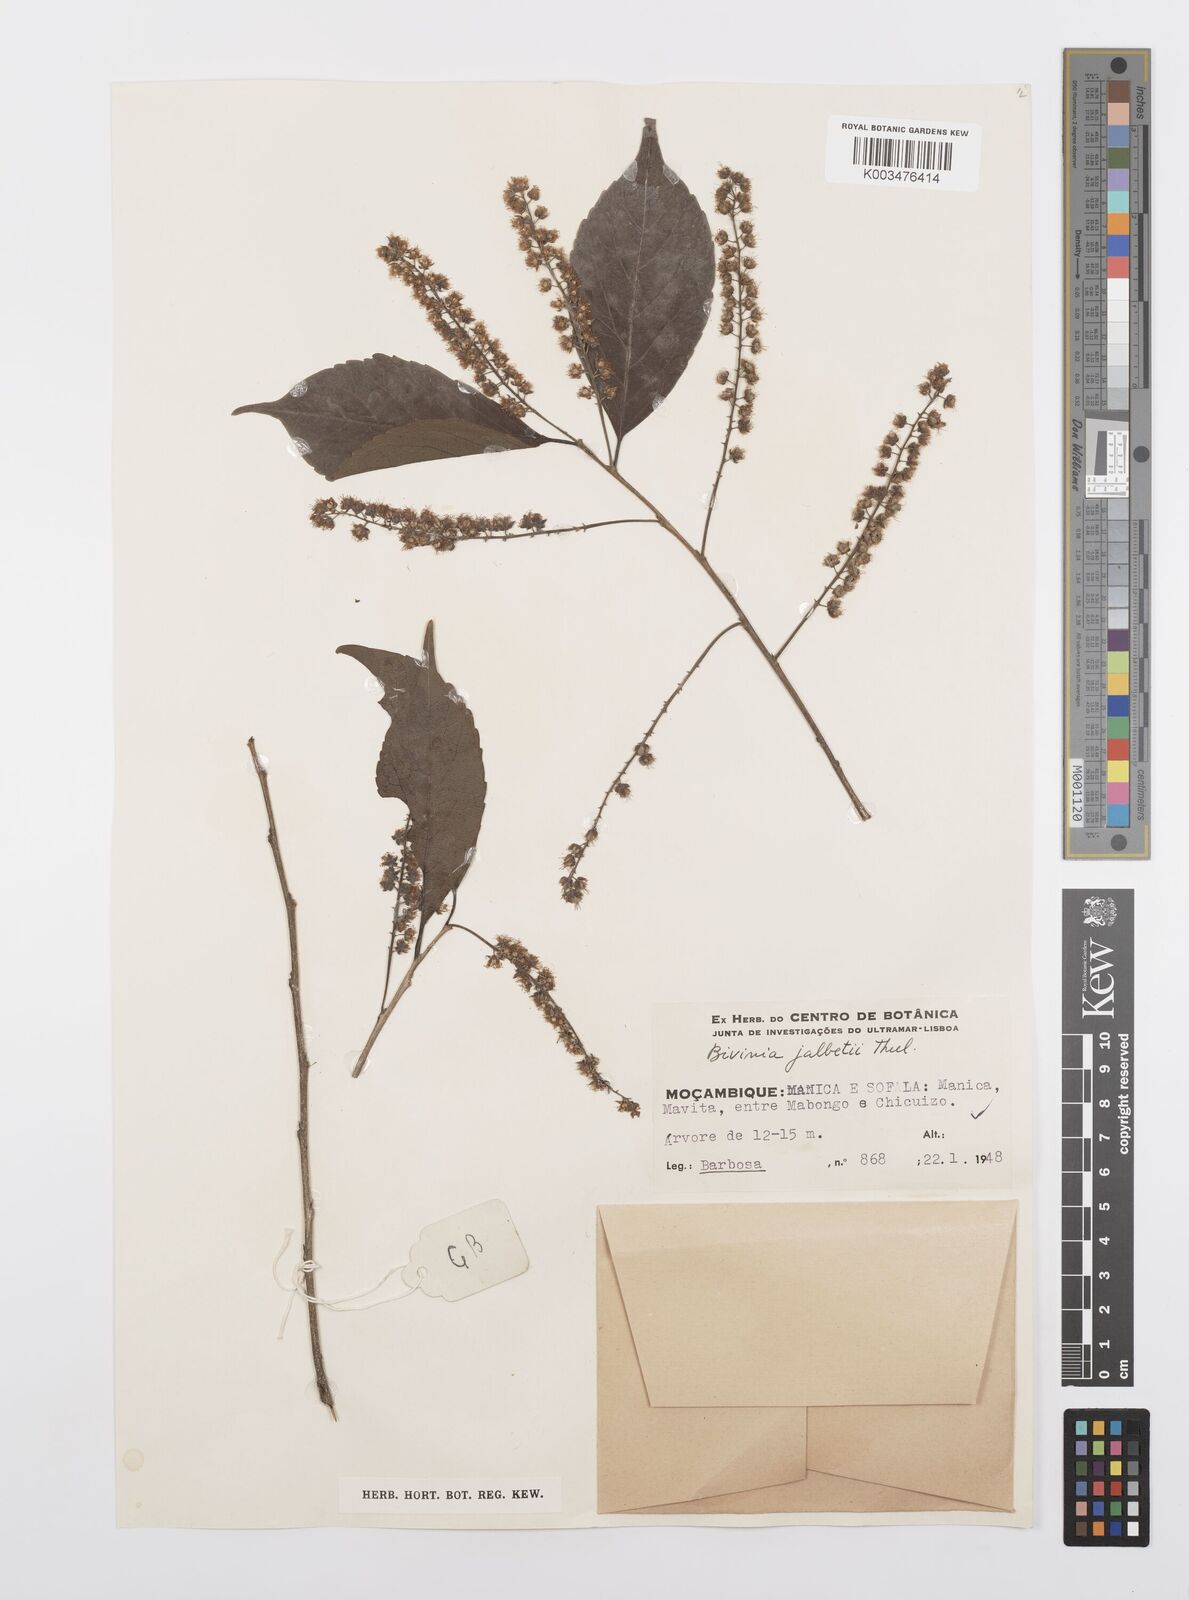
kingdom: Plantae
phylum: Tracheophyta
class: Magnoliopsida
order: Malpighiales
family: Salicaceae
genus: Bivinia
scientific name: Bivinia jalbertii
